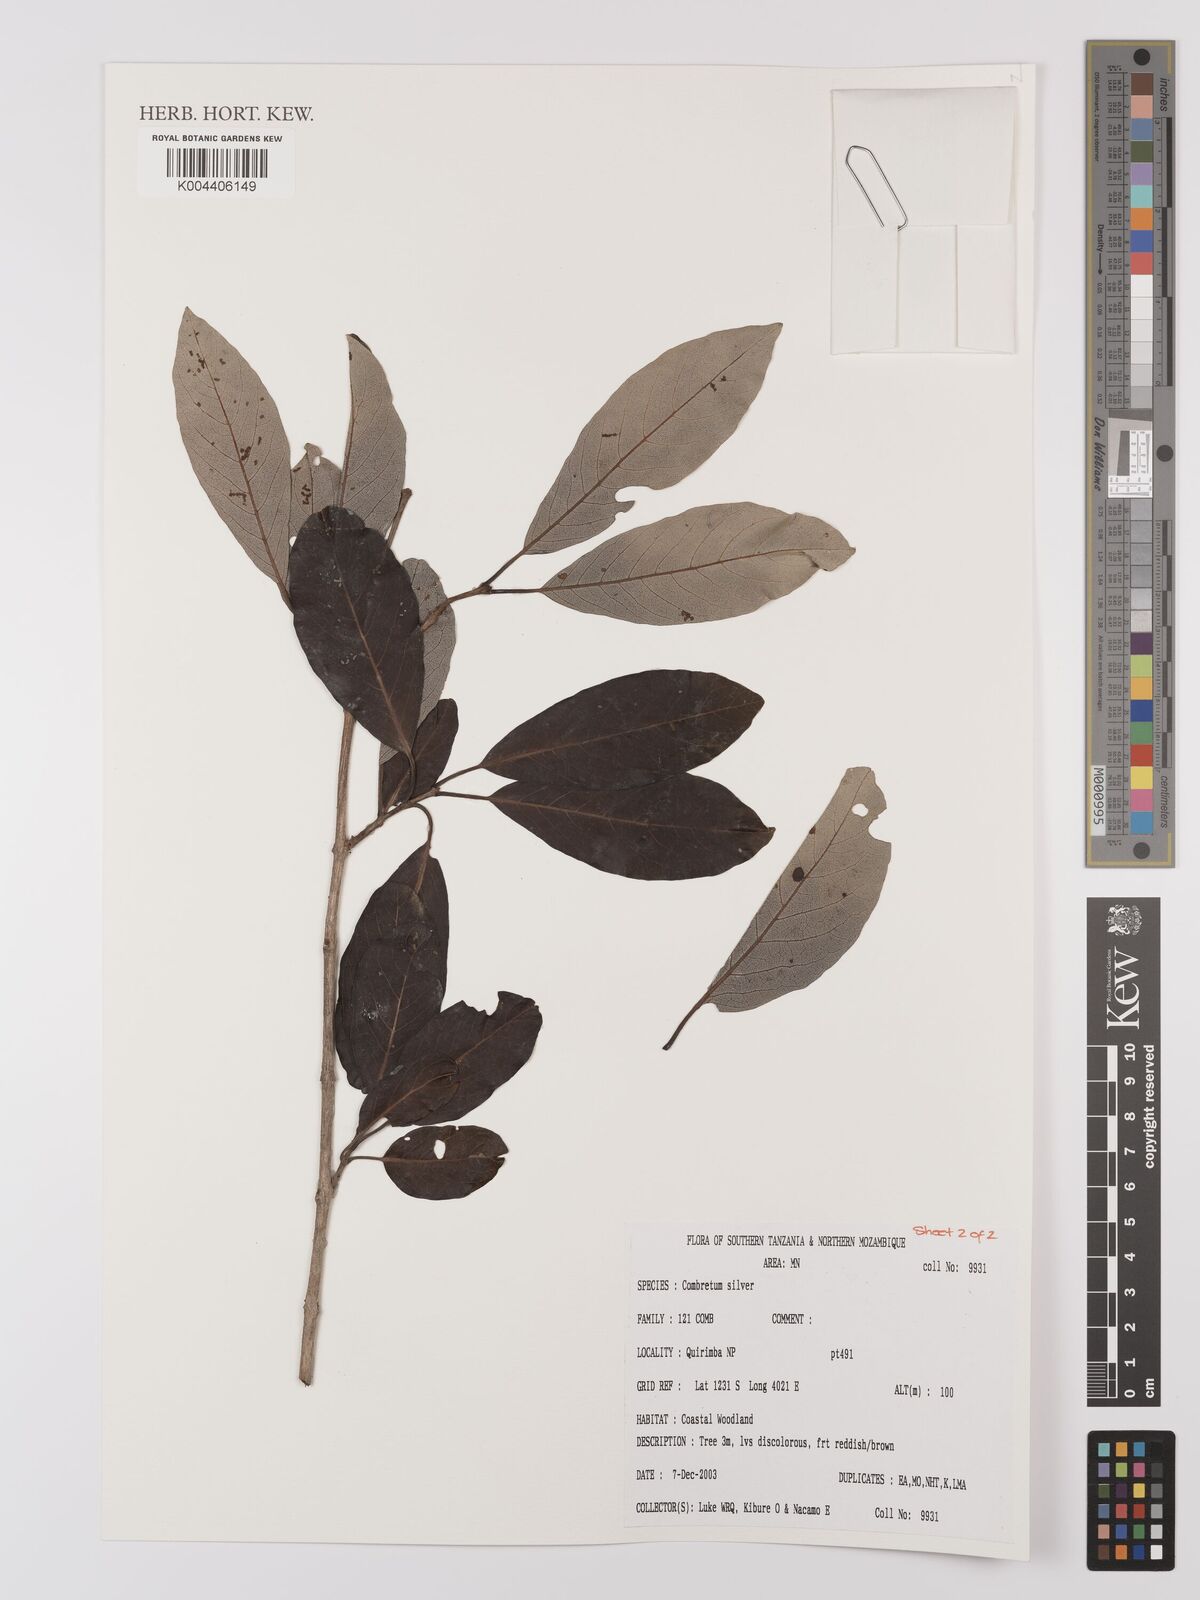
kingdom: Plantae
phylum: Tracheophyta
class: Magnoliopsida
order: Myrtales
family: Combretaceae
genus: Combretum
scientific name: Combretum
